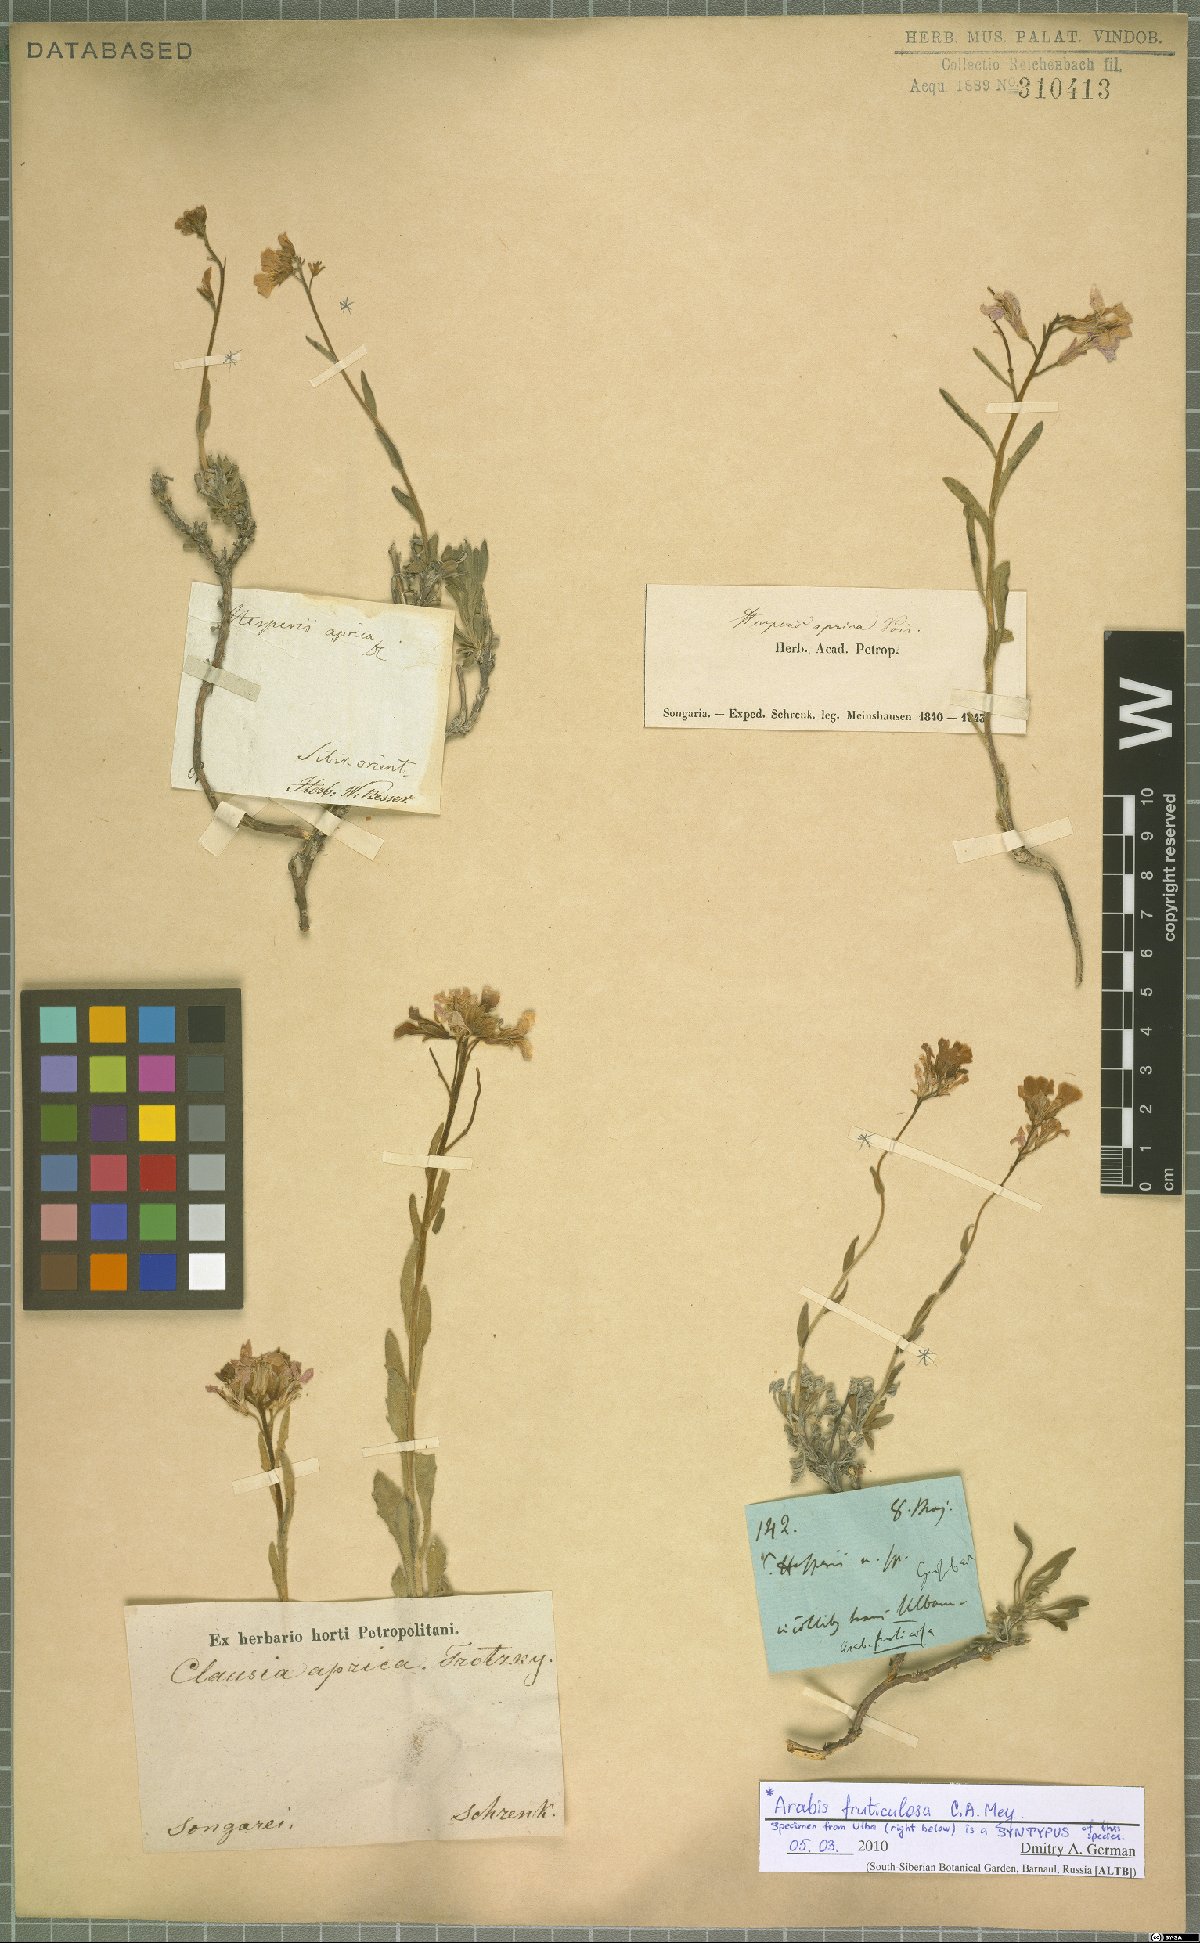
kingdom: Plantae
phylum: Tracheophyta
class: Magnoliopsida
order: Brassicales
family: Brassicaceae
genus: Dendroarabis
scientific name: Dendroarabis fruticulosa
